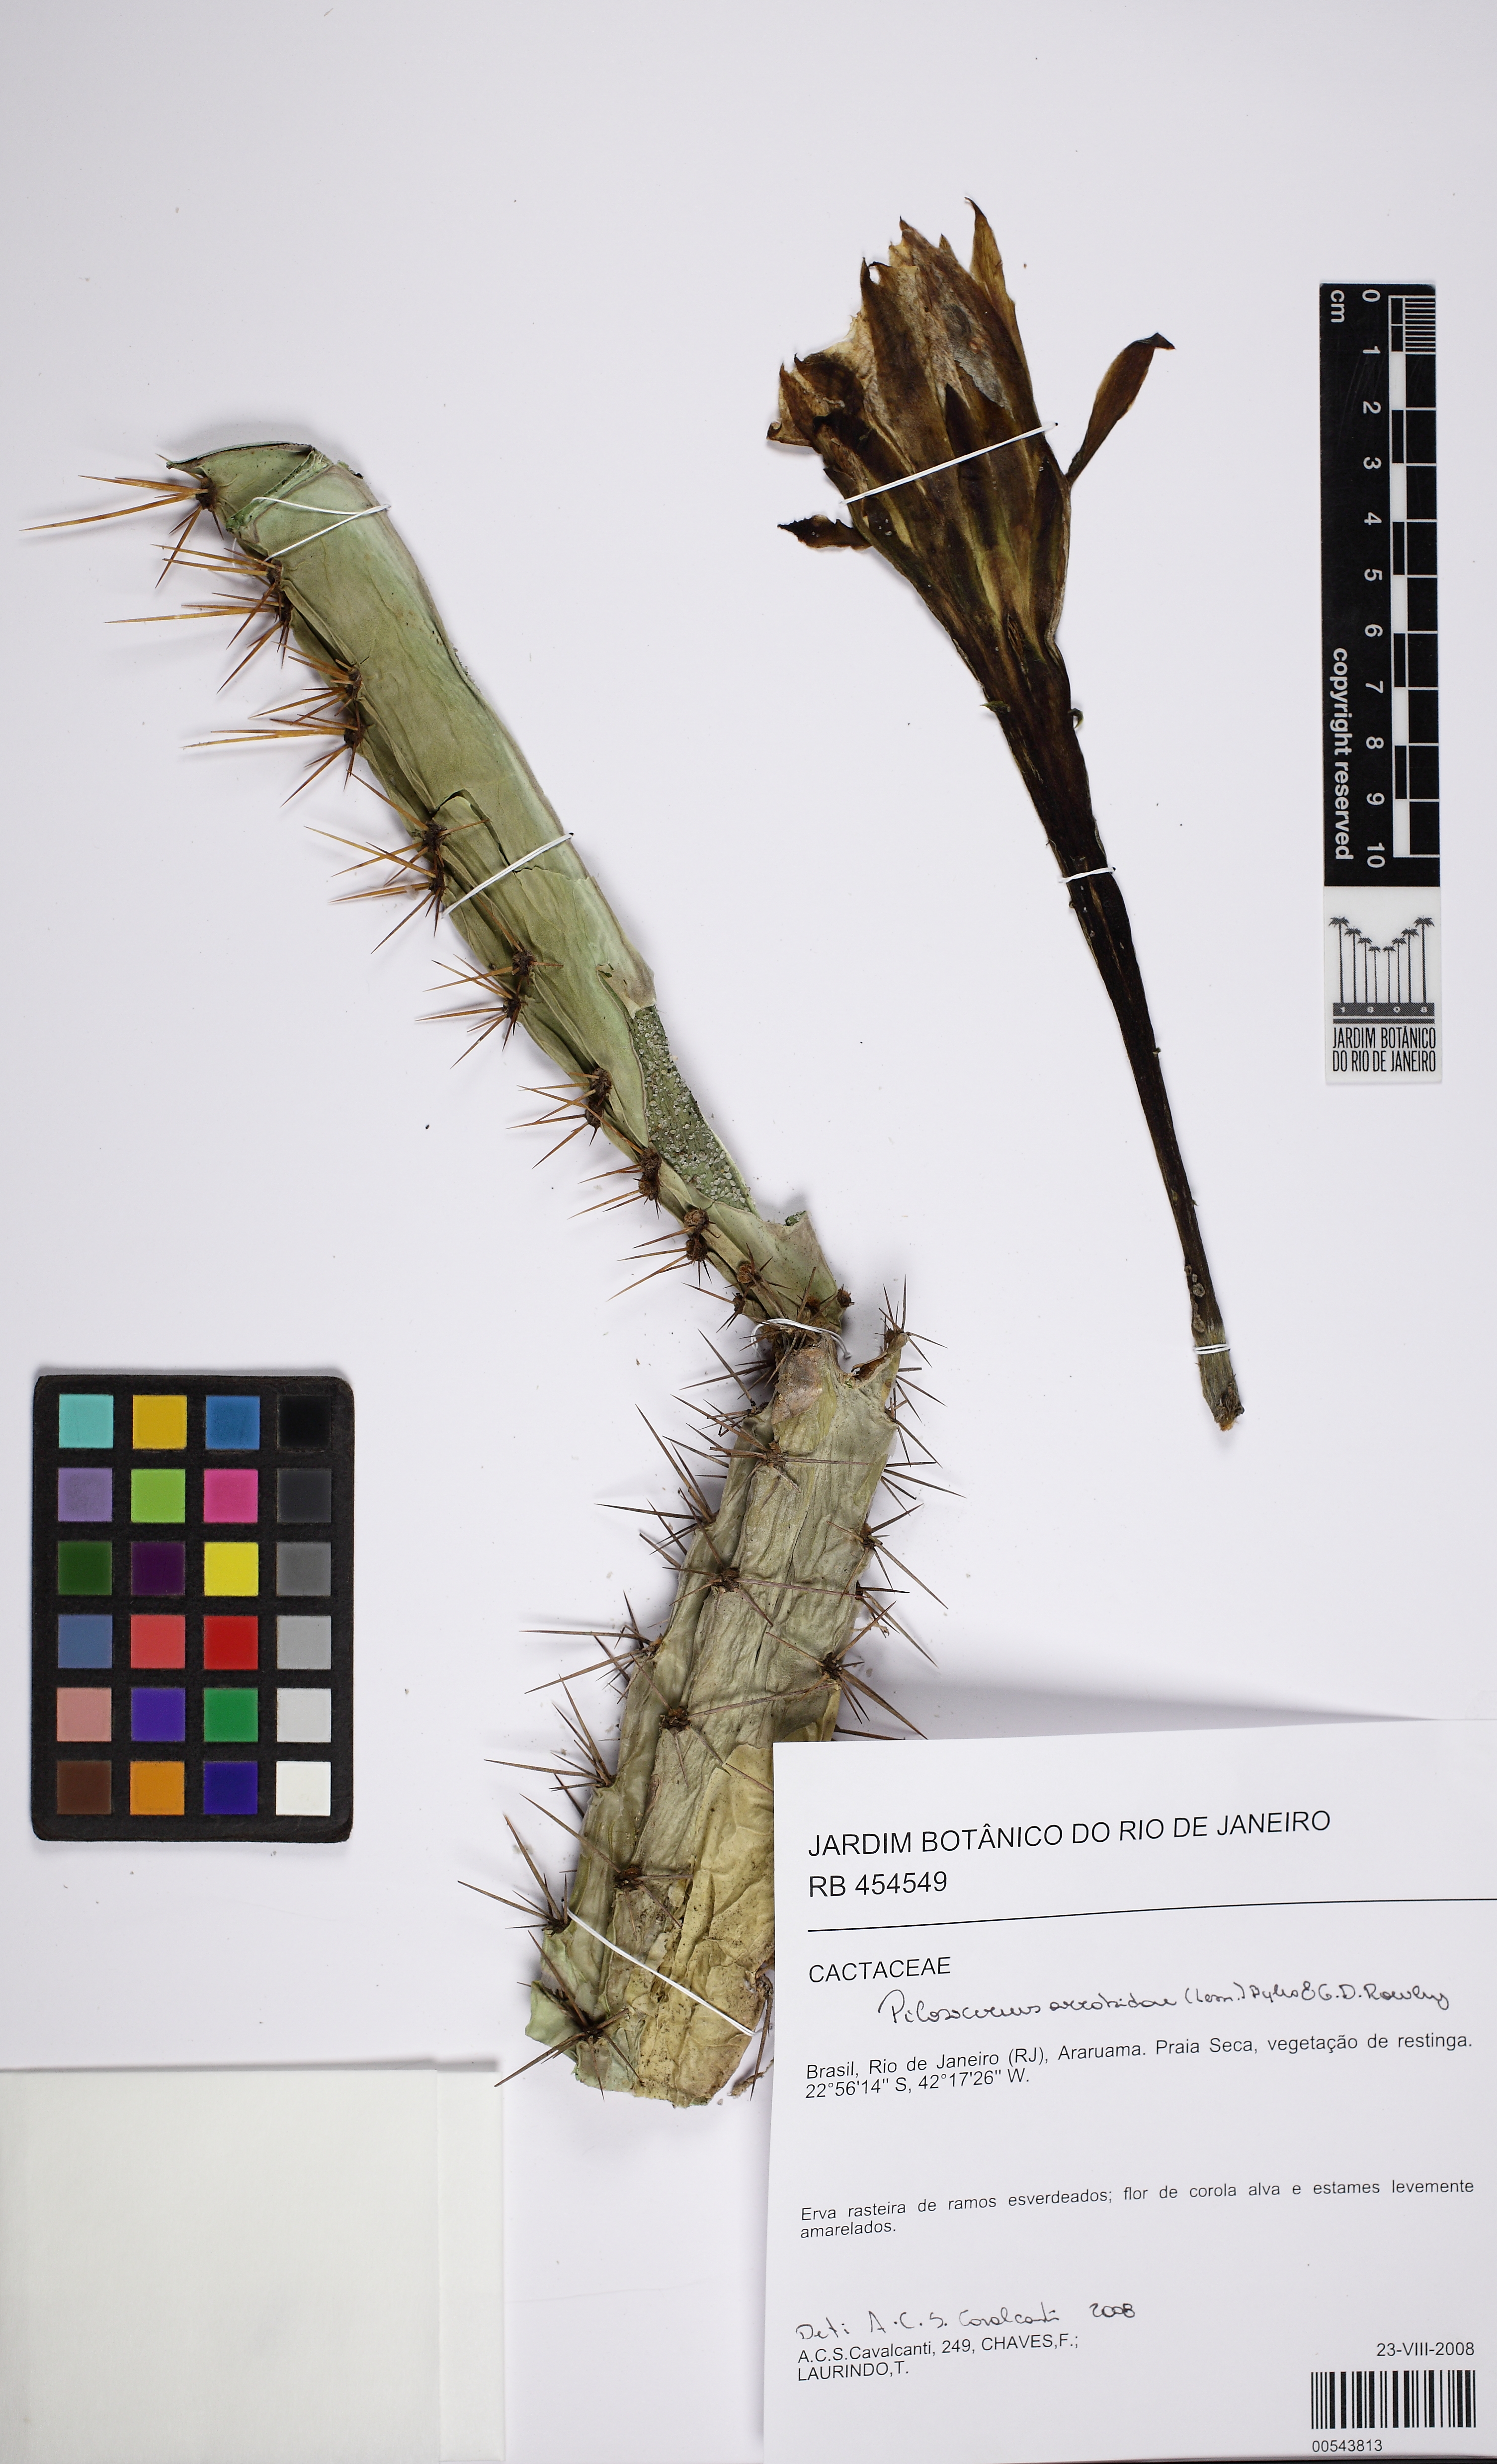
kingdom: Plantae
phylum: Tracheophyta
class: Magnoliopsida
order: Caryophyllales
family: Cactaceae
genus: Cereus
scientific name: Cereus fernambucensis
